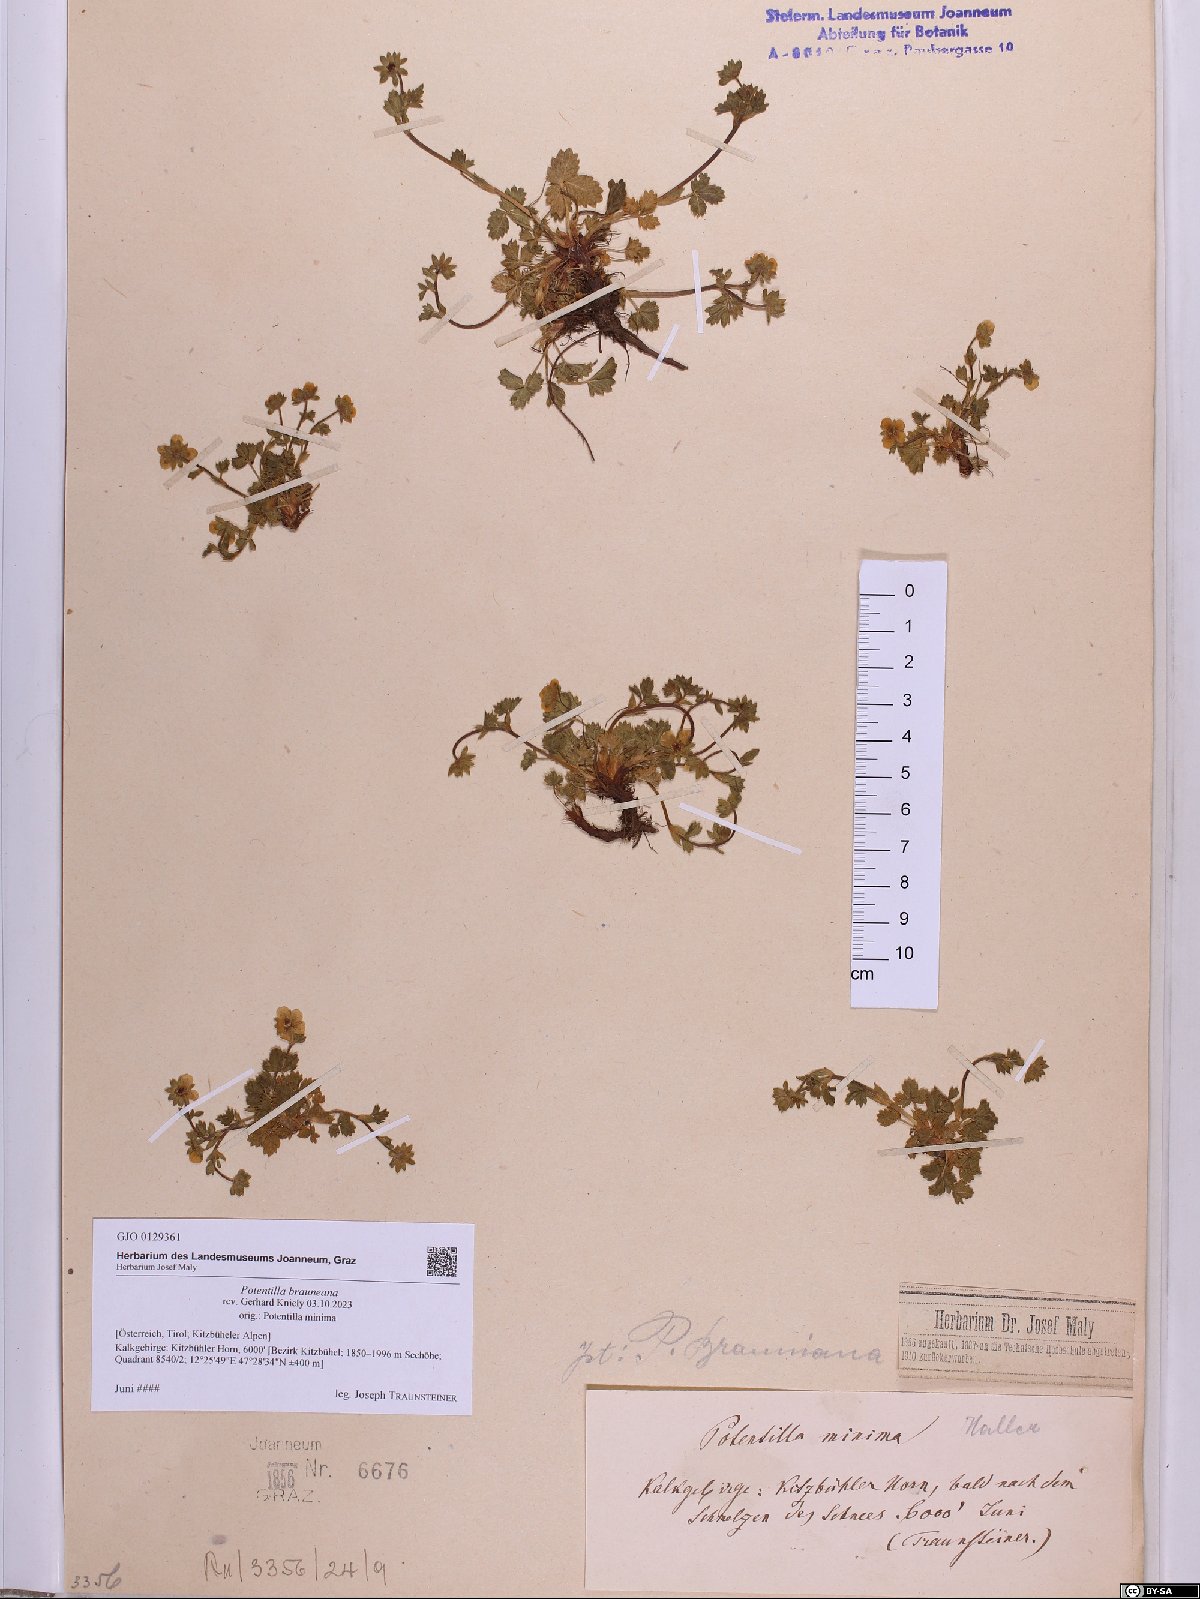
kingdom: Plantae
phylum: Tracheophyta
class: Magnoliopsida
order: Rosales
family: Rosaceae
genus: Potentilla
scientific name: Potentilla brauneana
